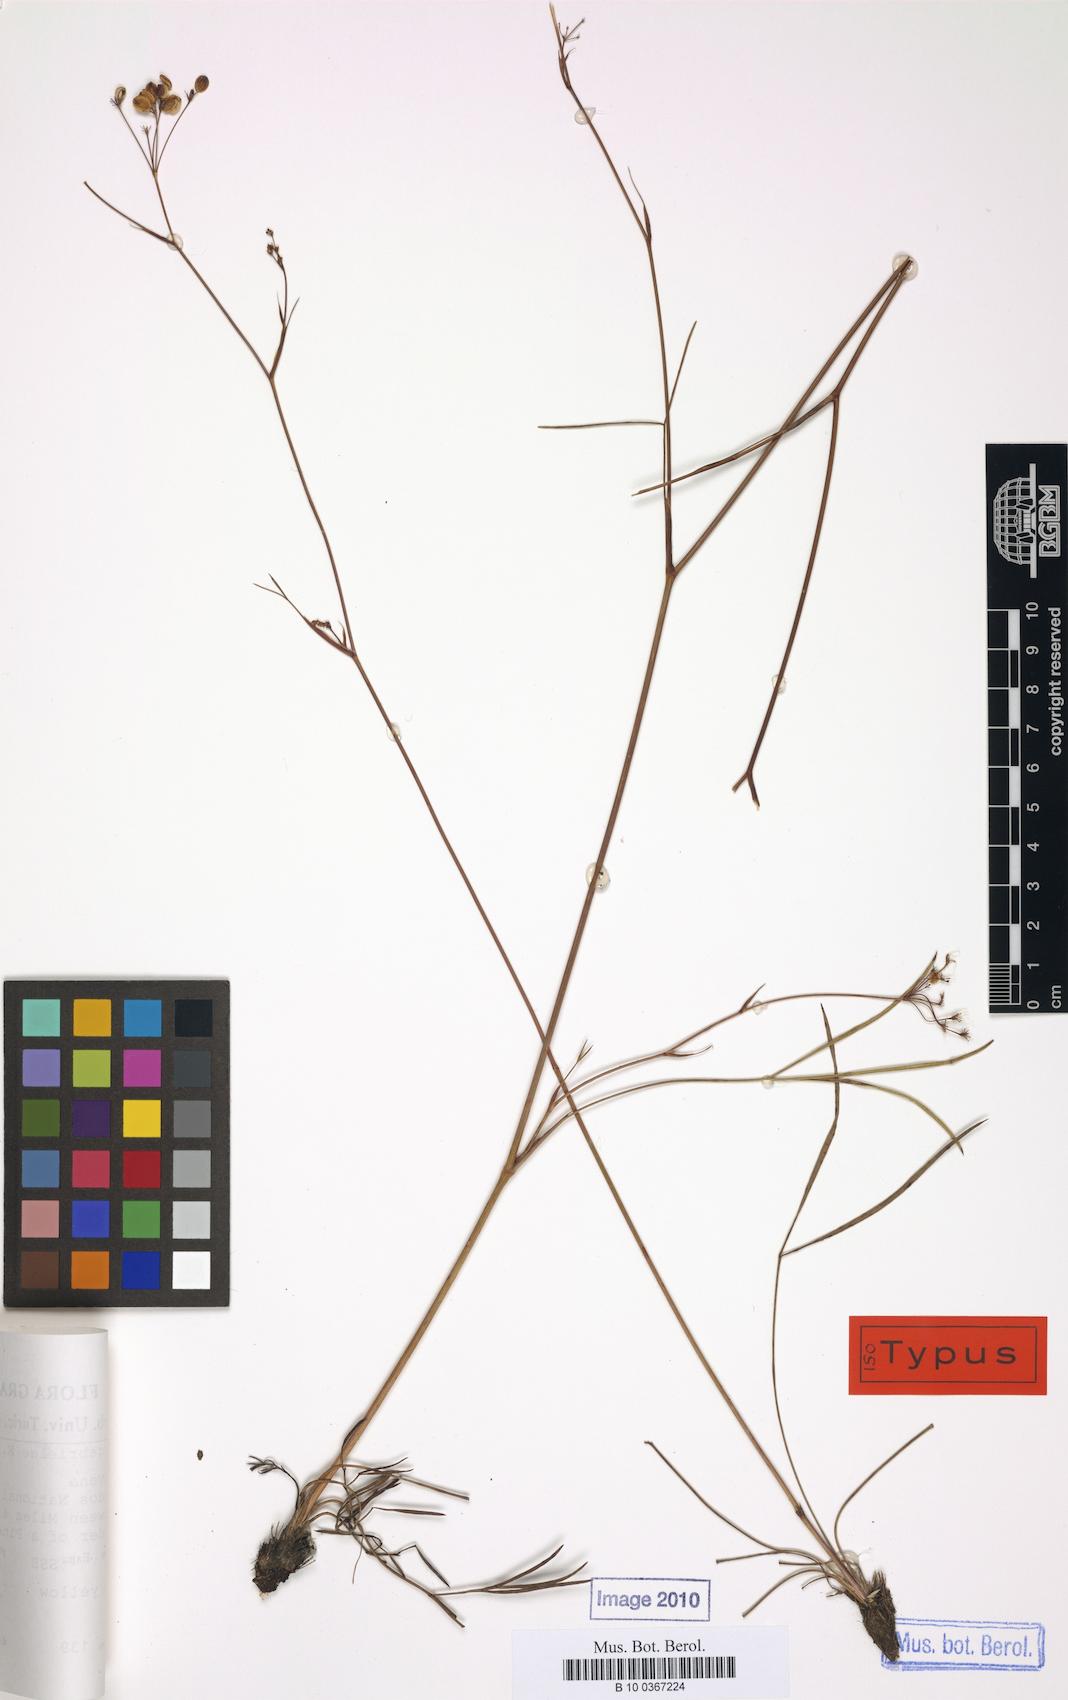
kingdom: Plantae
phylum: Tracheophyta
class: Magnoliopsida
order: Apiales
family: Apiaceae
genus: Peucedanum
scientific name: Peucedanum gabrielae
